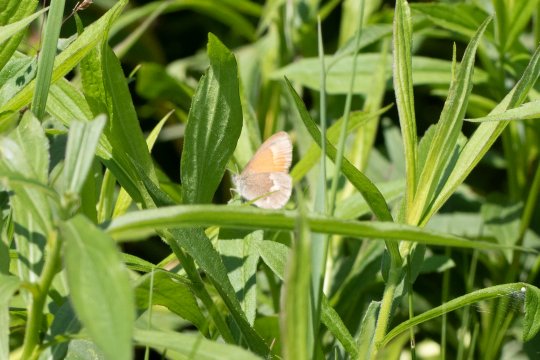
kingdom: Animalia
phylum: Arthropoda
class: Insecta
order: Lepidoptera
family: Nymphalidae
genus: Coenonympha
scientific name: Coenonympha tullia
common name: Large Heath
